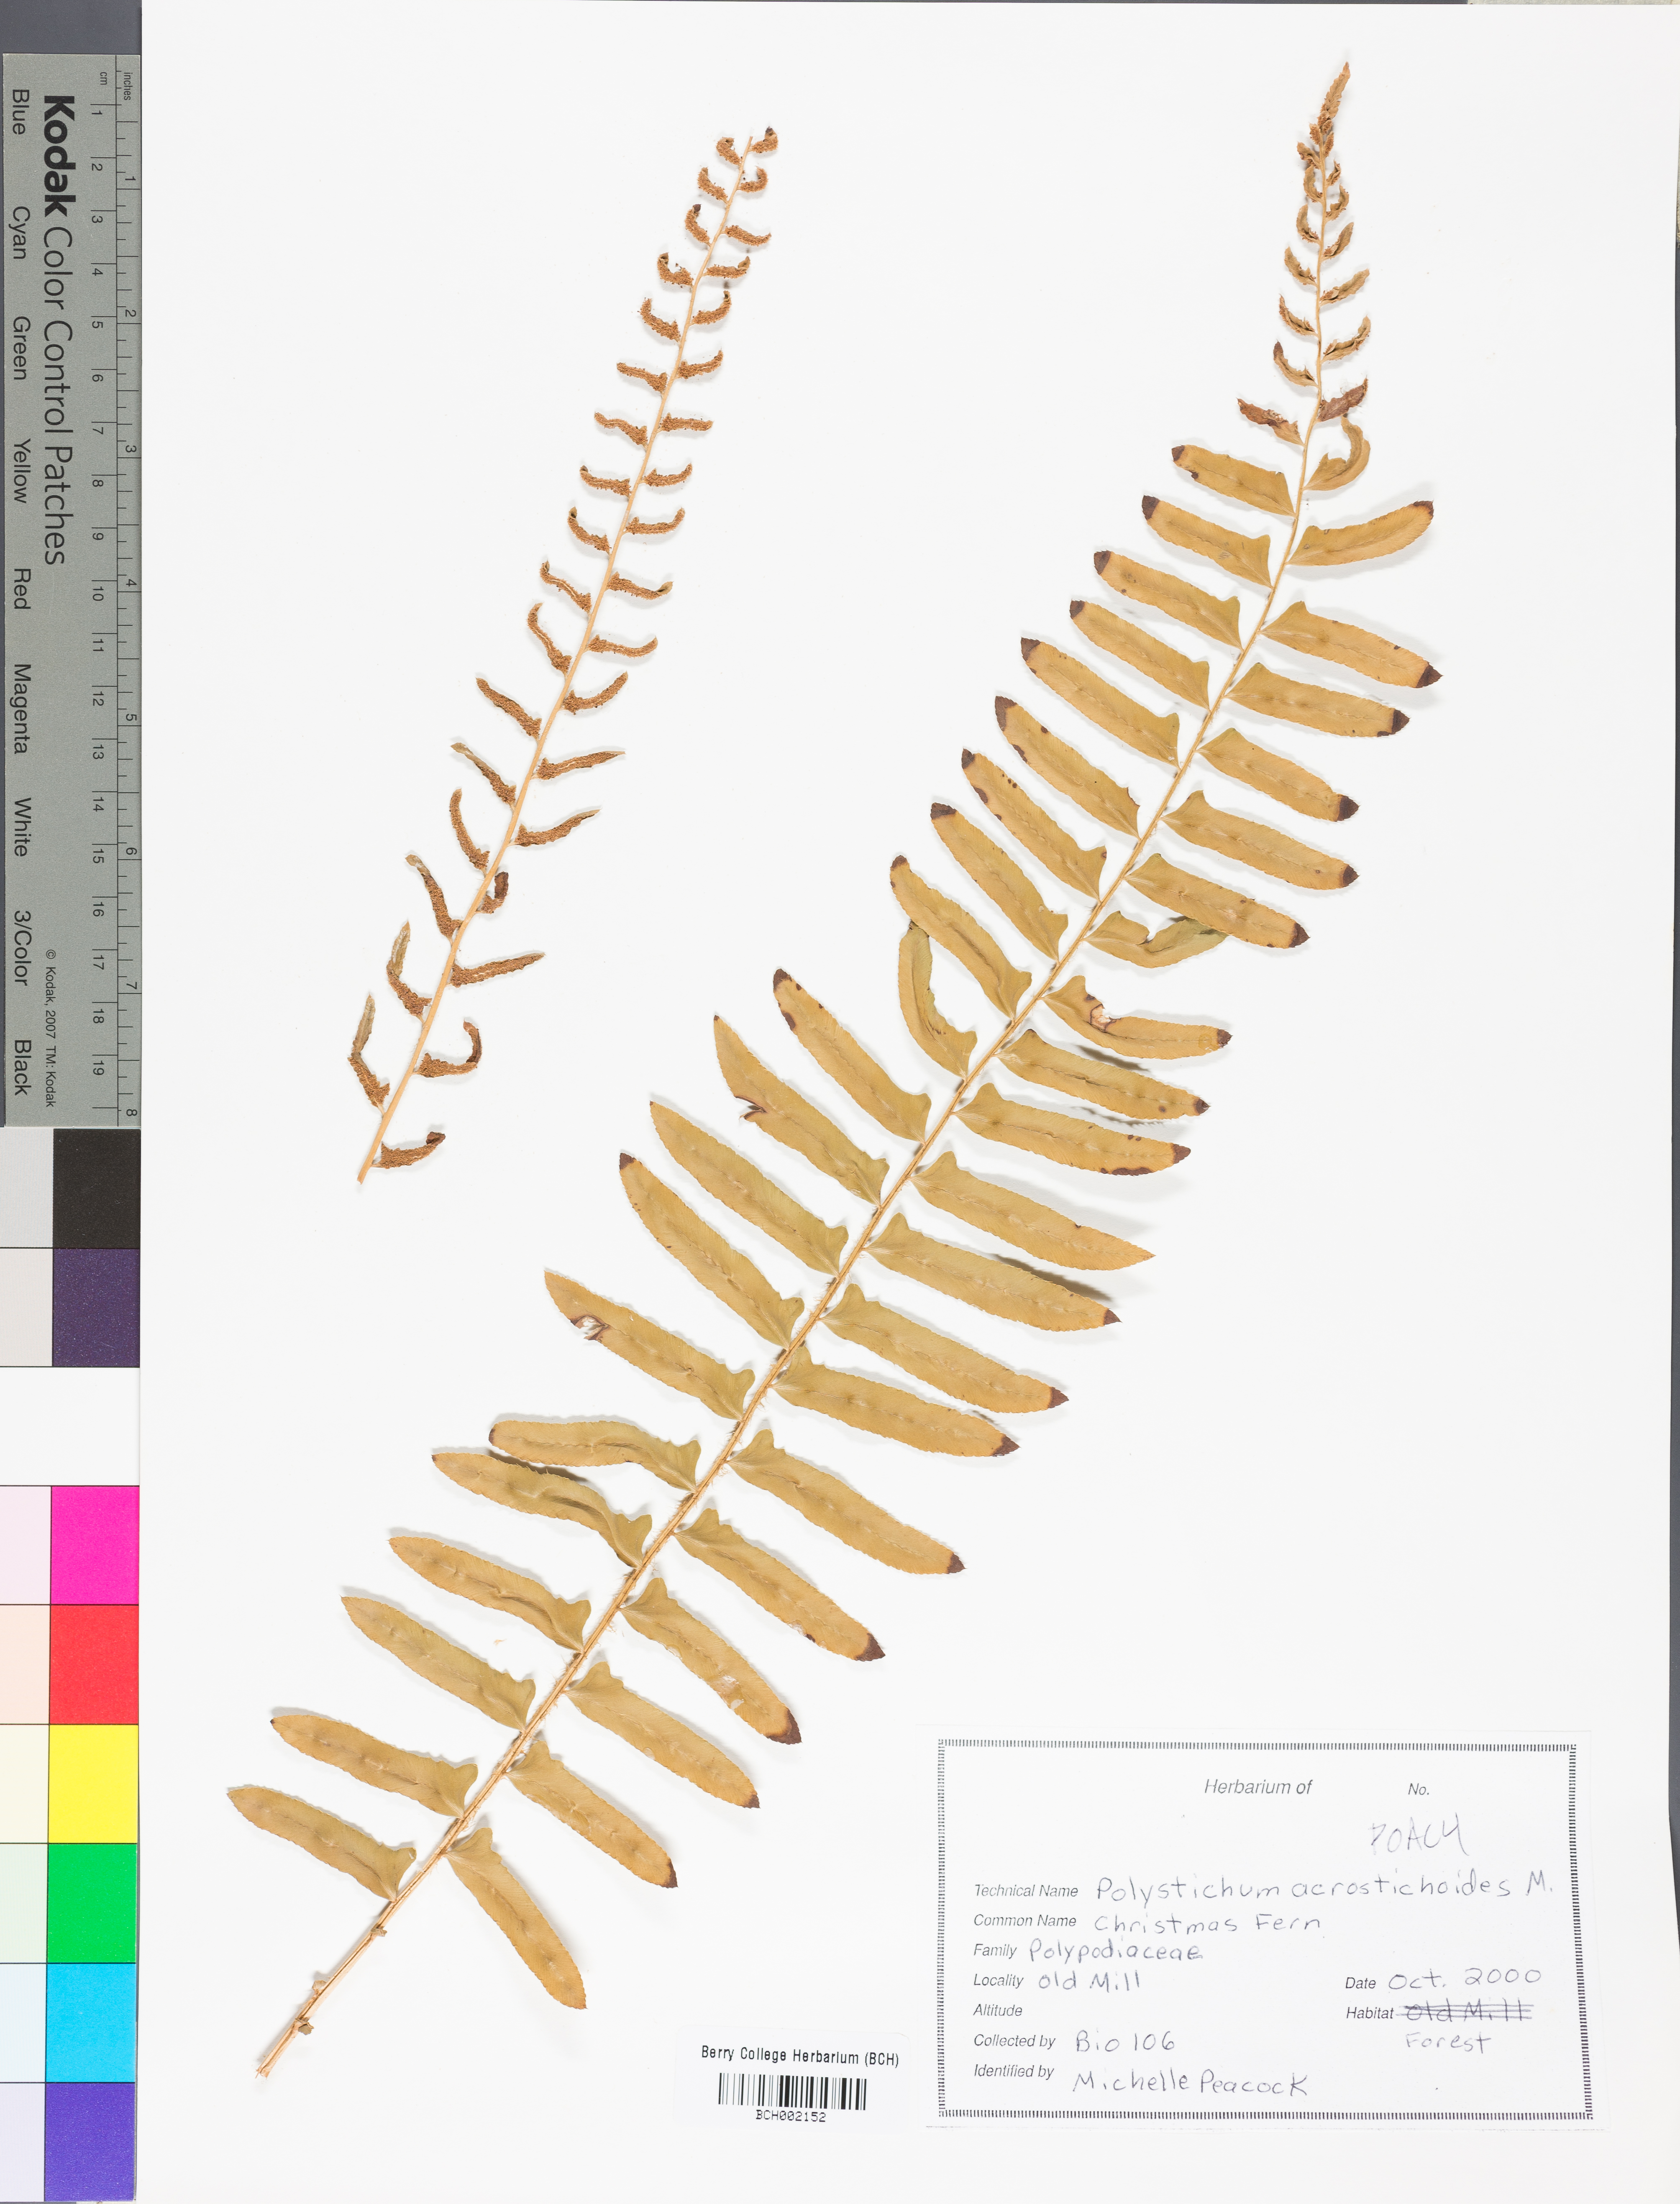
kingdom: Plantae
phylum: Tracheophyta
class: Polypodiopsida
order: Polypodiales
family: Dryopteridaceae
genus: Polystichum
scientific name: Polystichum acrostichoides
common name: Christmas fern
